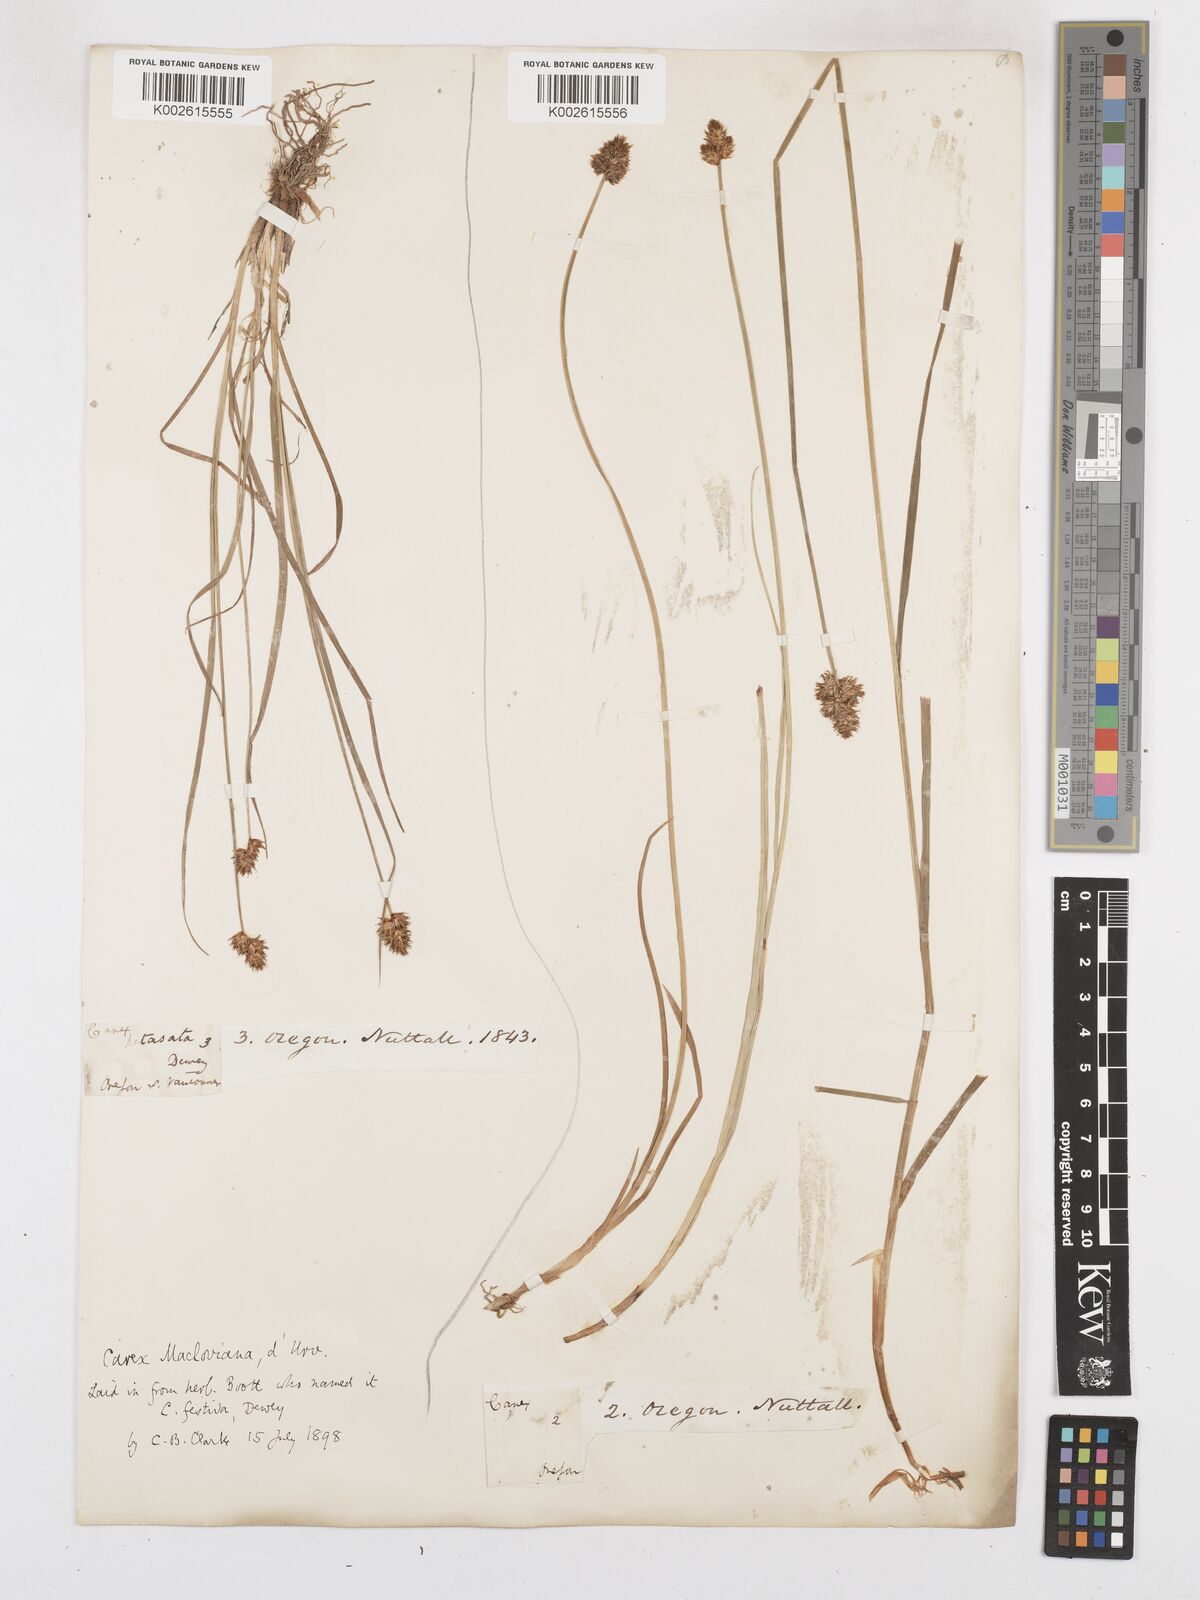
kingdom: Plantae
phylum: Tracheophyta
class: Liliopsida
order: Poales
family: Cyperaceae
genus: Carex
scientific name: Carex macloviana
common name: Falkland island sedge
